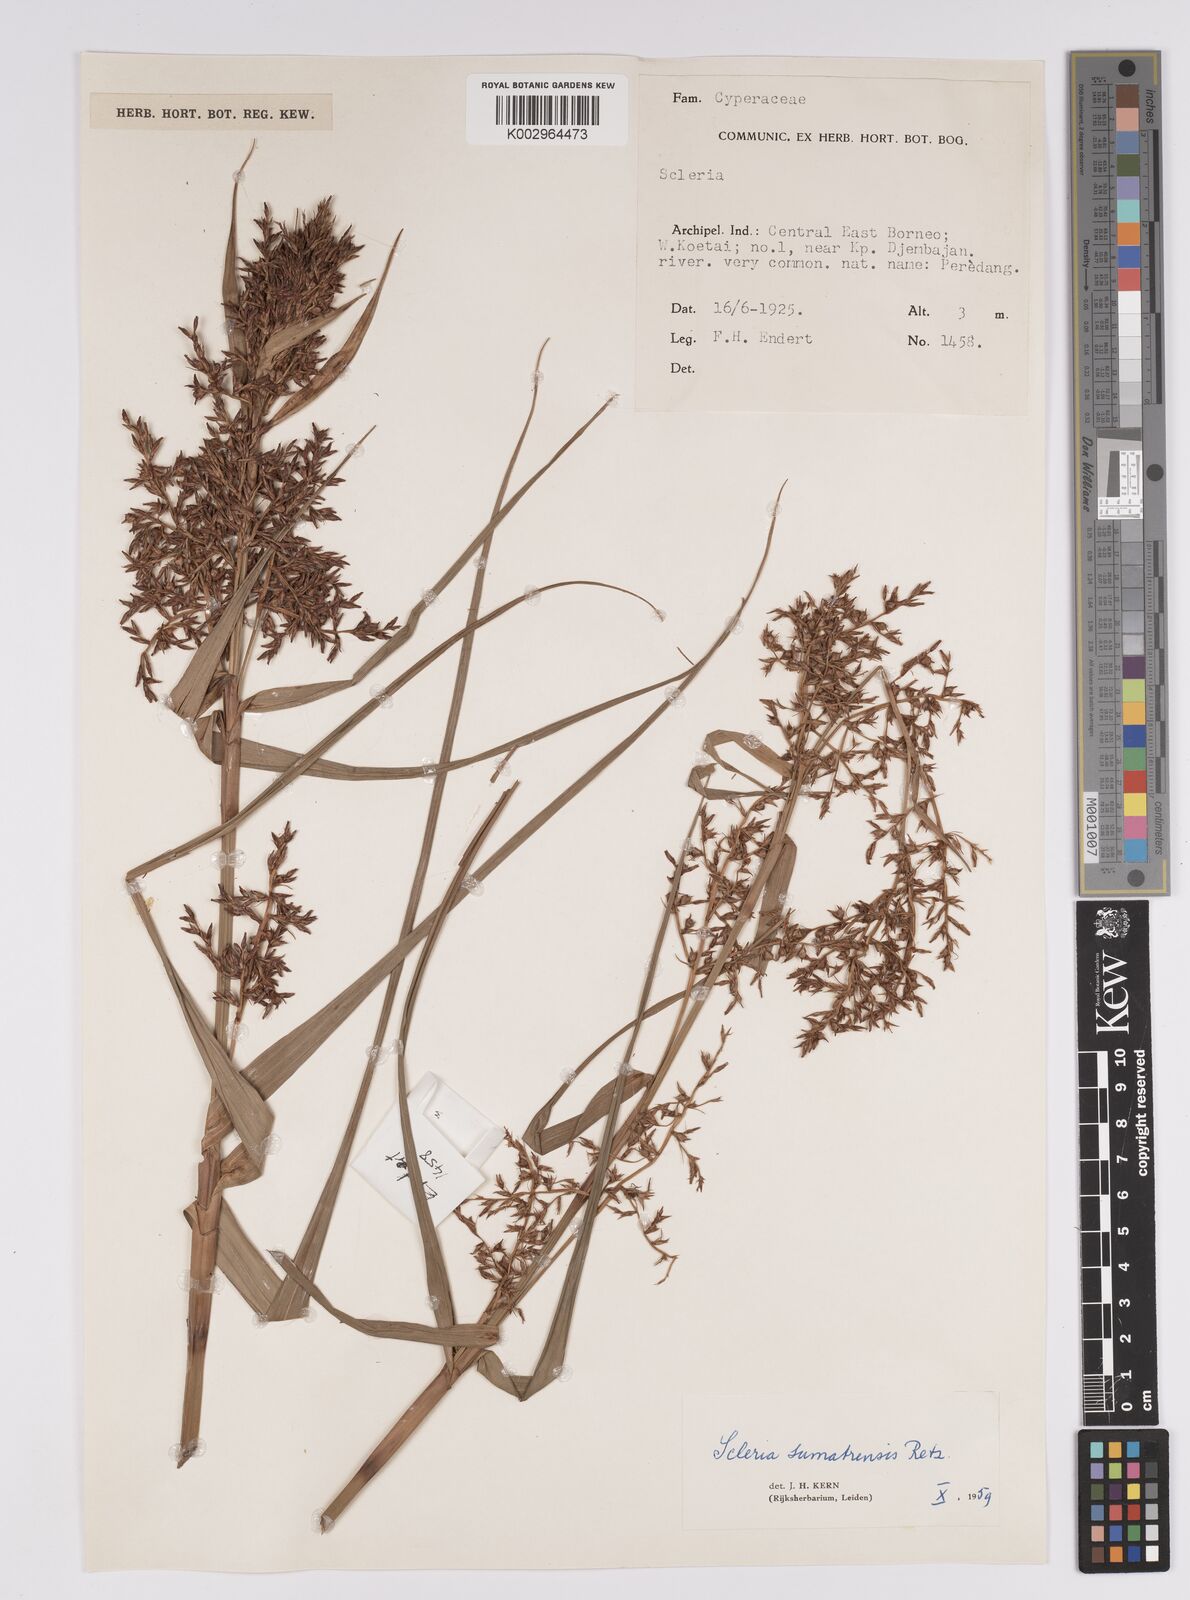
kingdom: Plantae
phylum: Tracheophyta
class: Liliopsida
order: Poales
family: Cyperaceae
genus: Scleria
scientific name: Scleria sumatrensis
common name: Sumatran scleria
